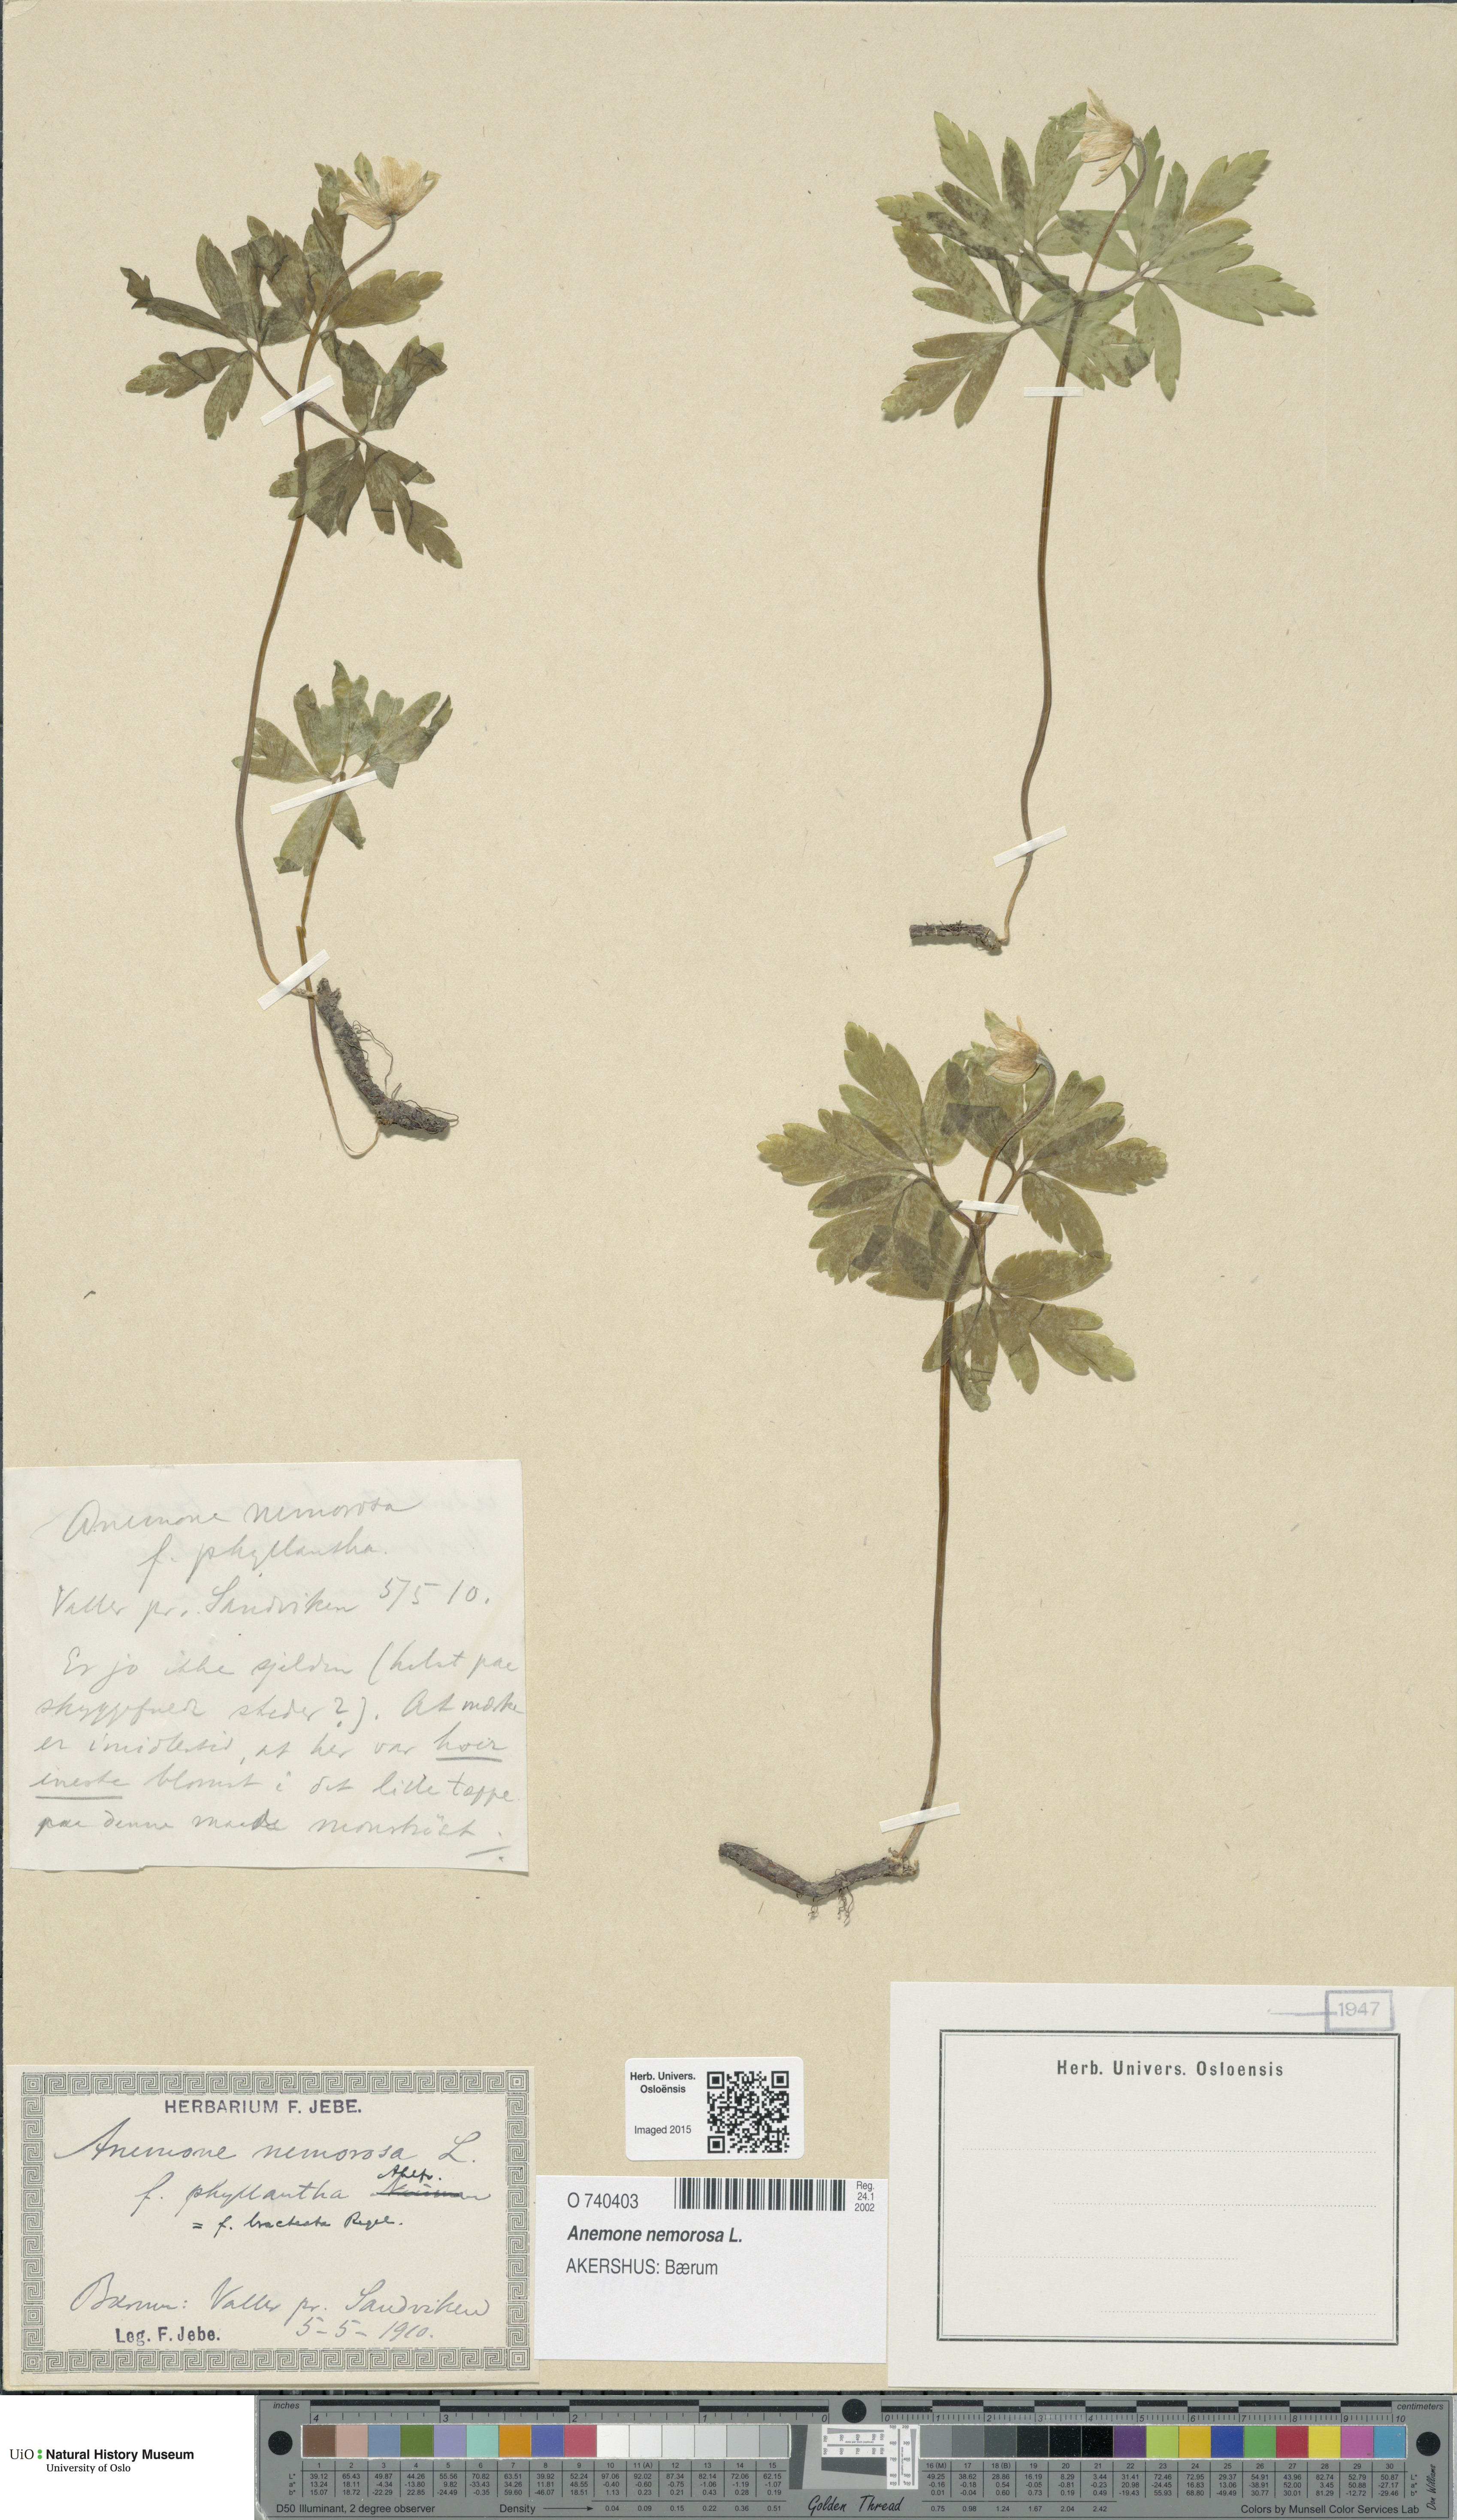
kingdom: Plantae
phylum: Tracheophyta
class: Magnoliopsida
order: Ranunculales
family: Ranunculaceae
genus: Anemone
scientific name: Anemone nemorosa
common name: Wood anemone
